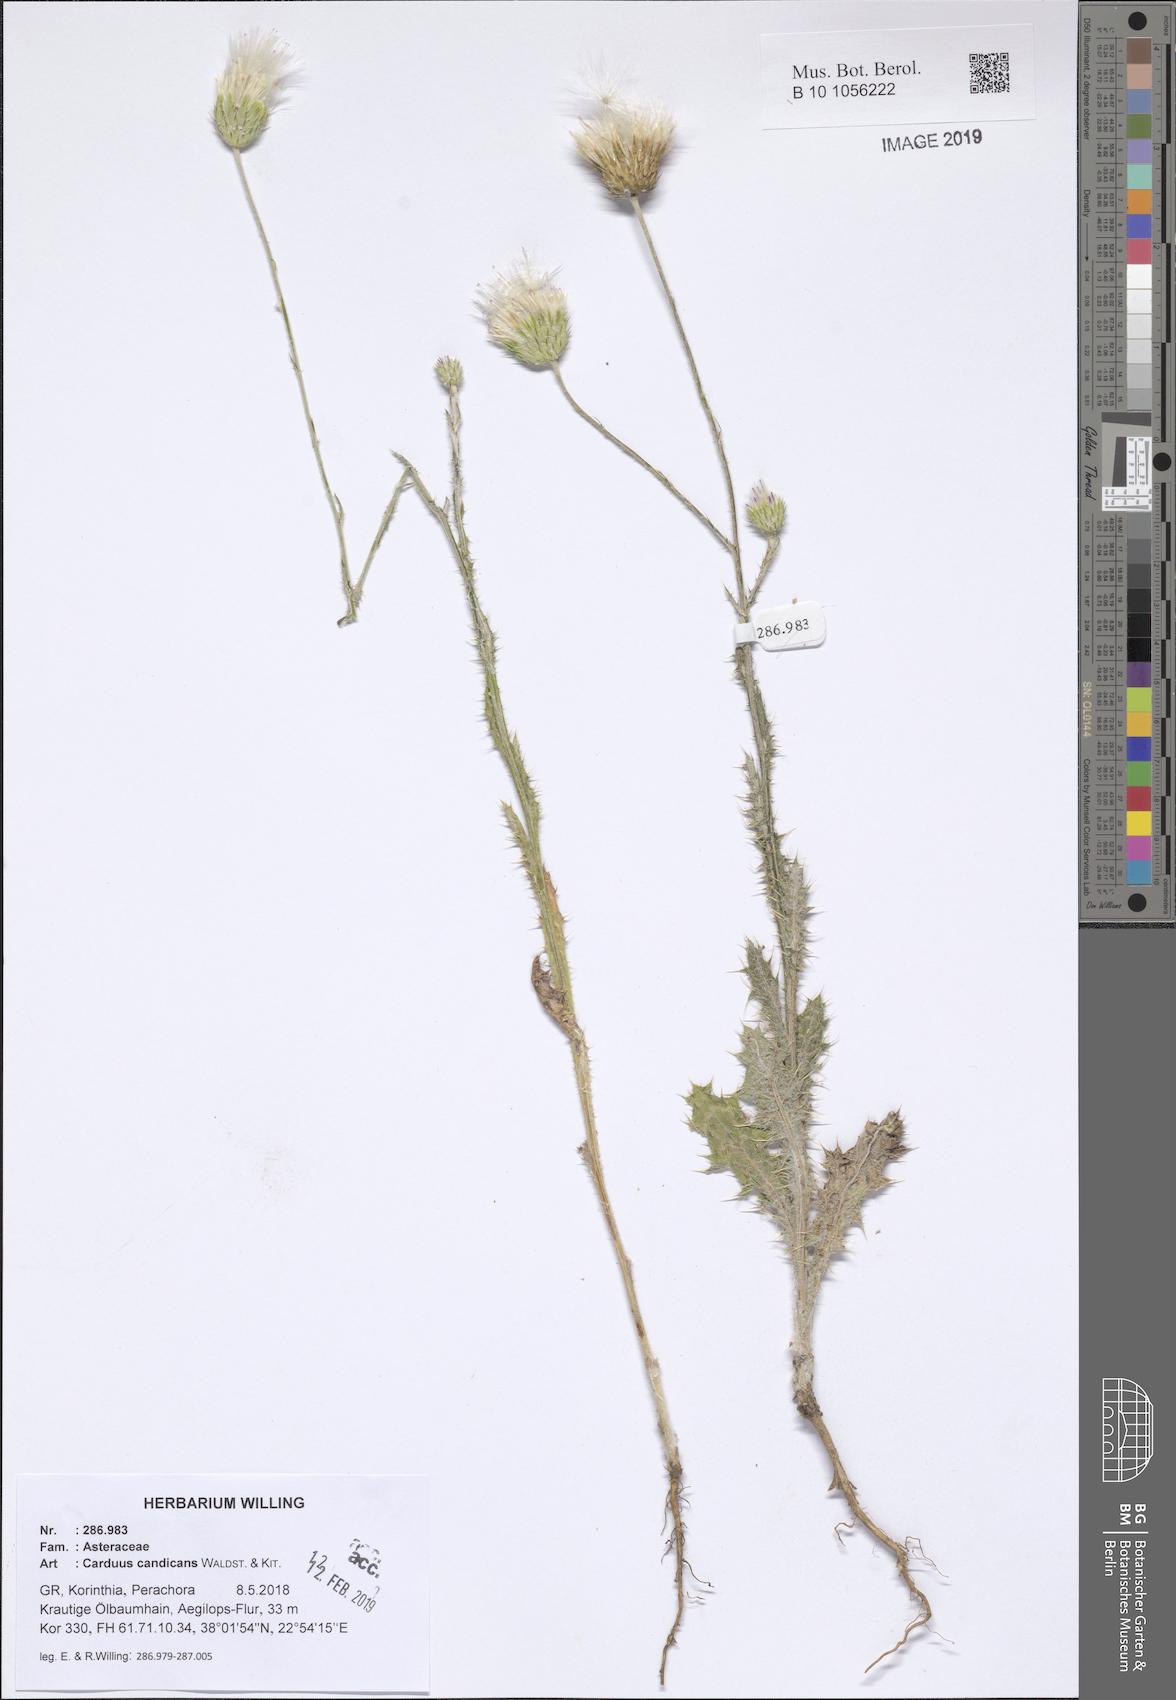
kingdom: Plantae
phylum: Tracheophyta
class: Magnoliopsida
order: Asterales
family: Asteraceae
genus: Carduus
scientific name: Carduus candicans
